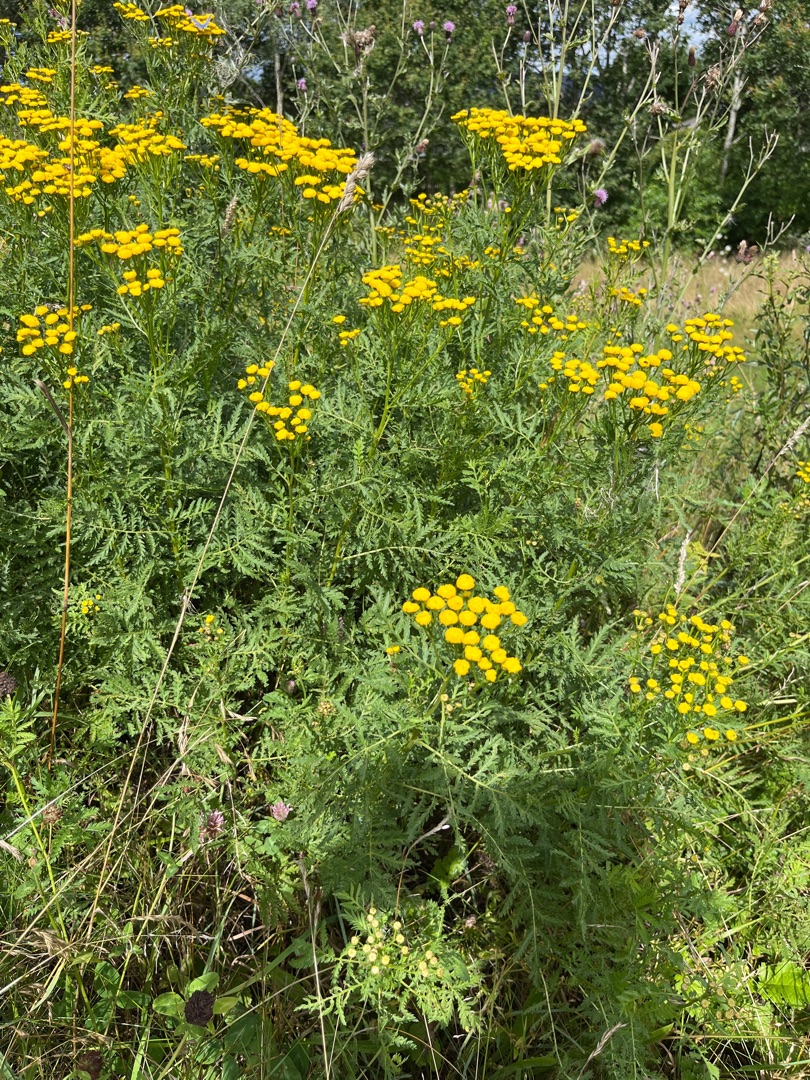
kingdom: Plantae
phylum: Tracheophyta
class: Magnoliopsida
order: Asterales
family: Asteraceae
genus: Tanacetum
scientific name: Tanacetum vulgare
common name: Rejnfan
